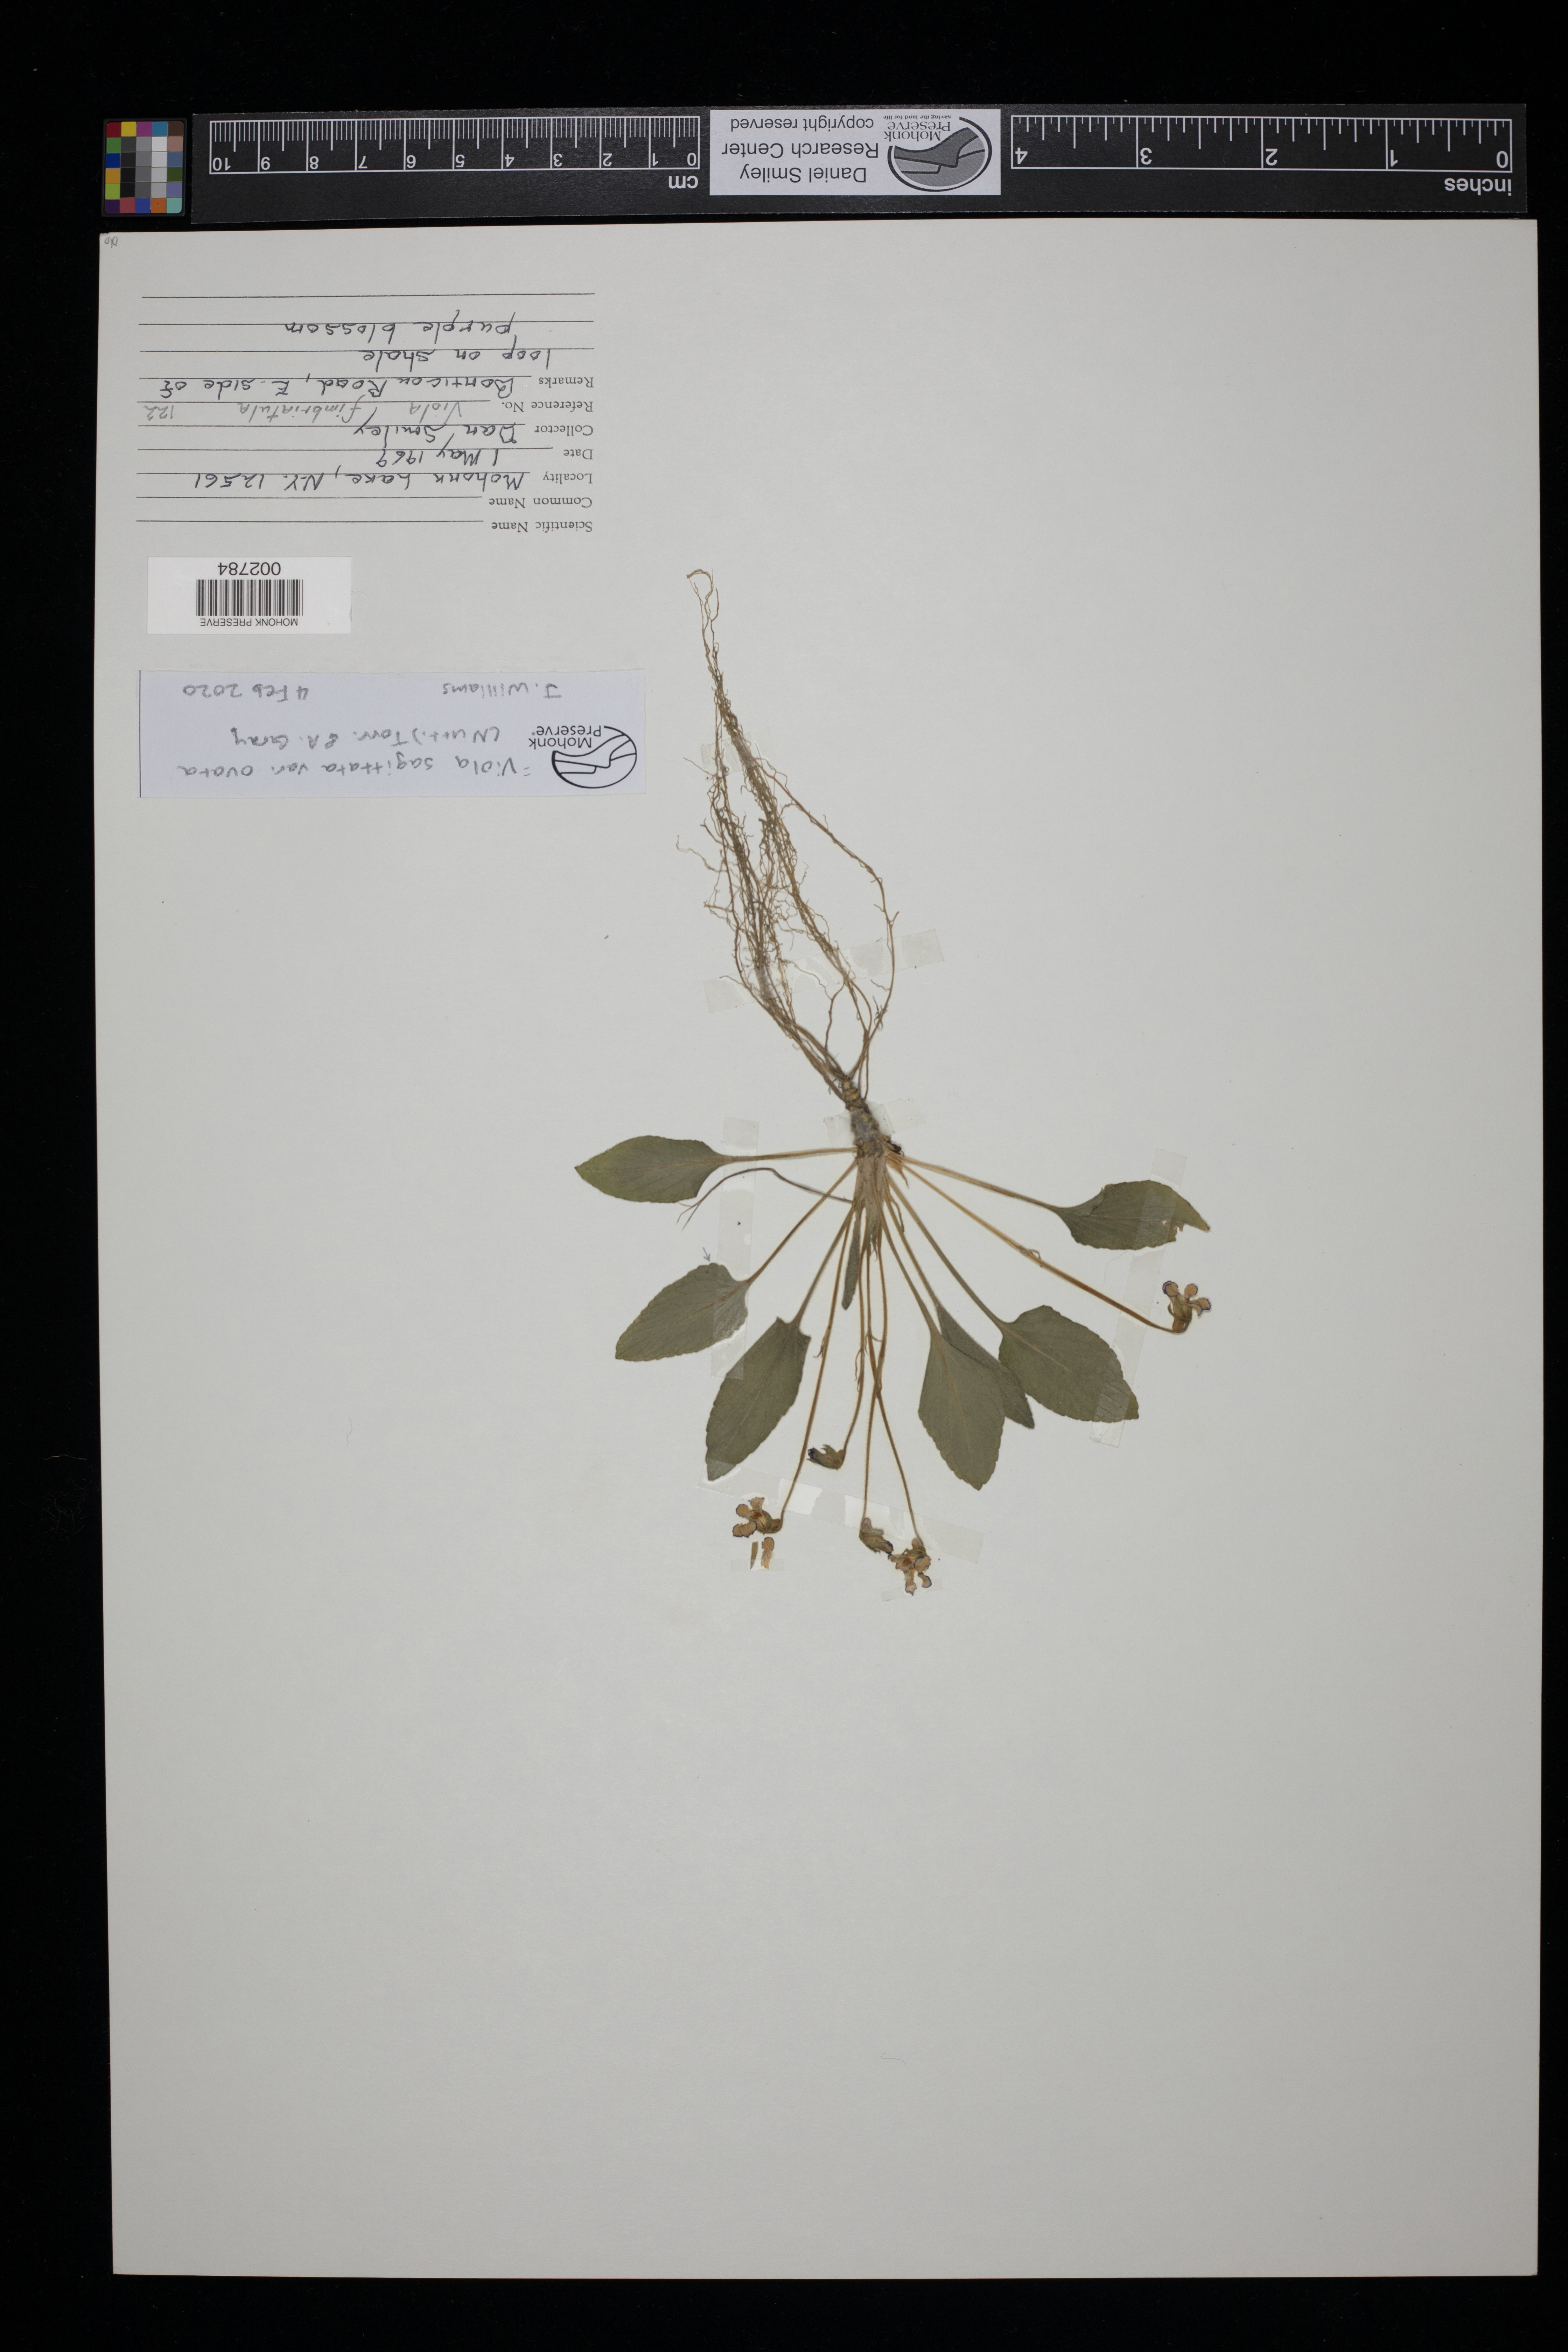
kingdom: Plantae
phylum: Tracheophyta
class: Magnoliopsida
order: Malpighiales
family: Violaceae
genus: Viola
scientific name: Viola fimbriatula
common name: Sand violet
